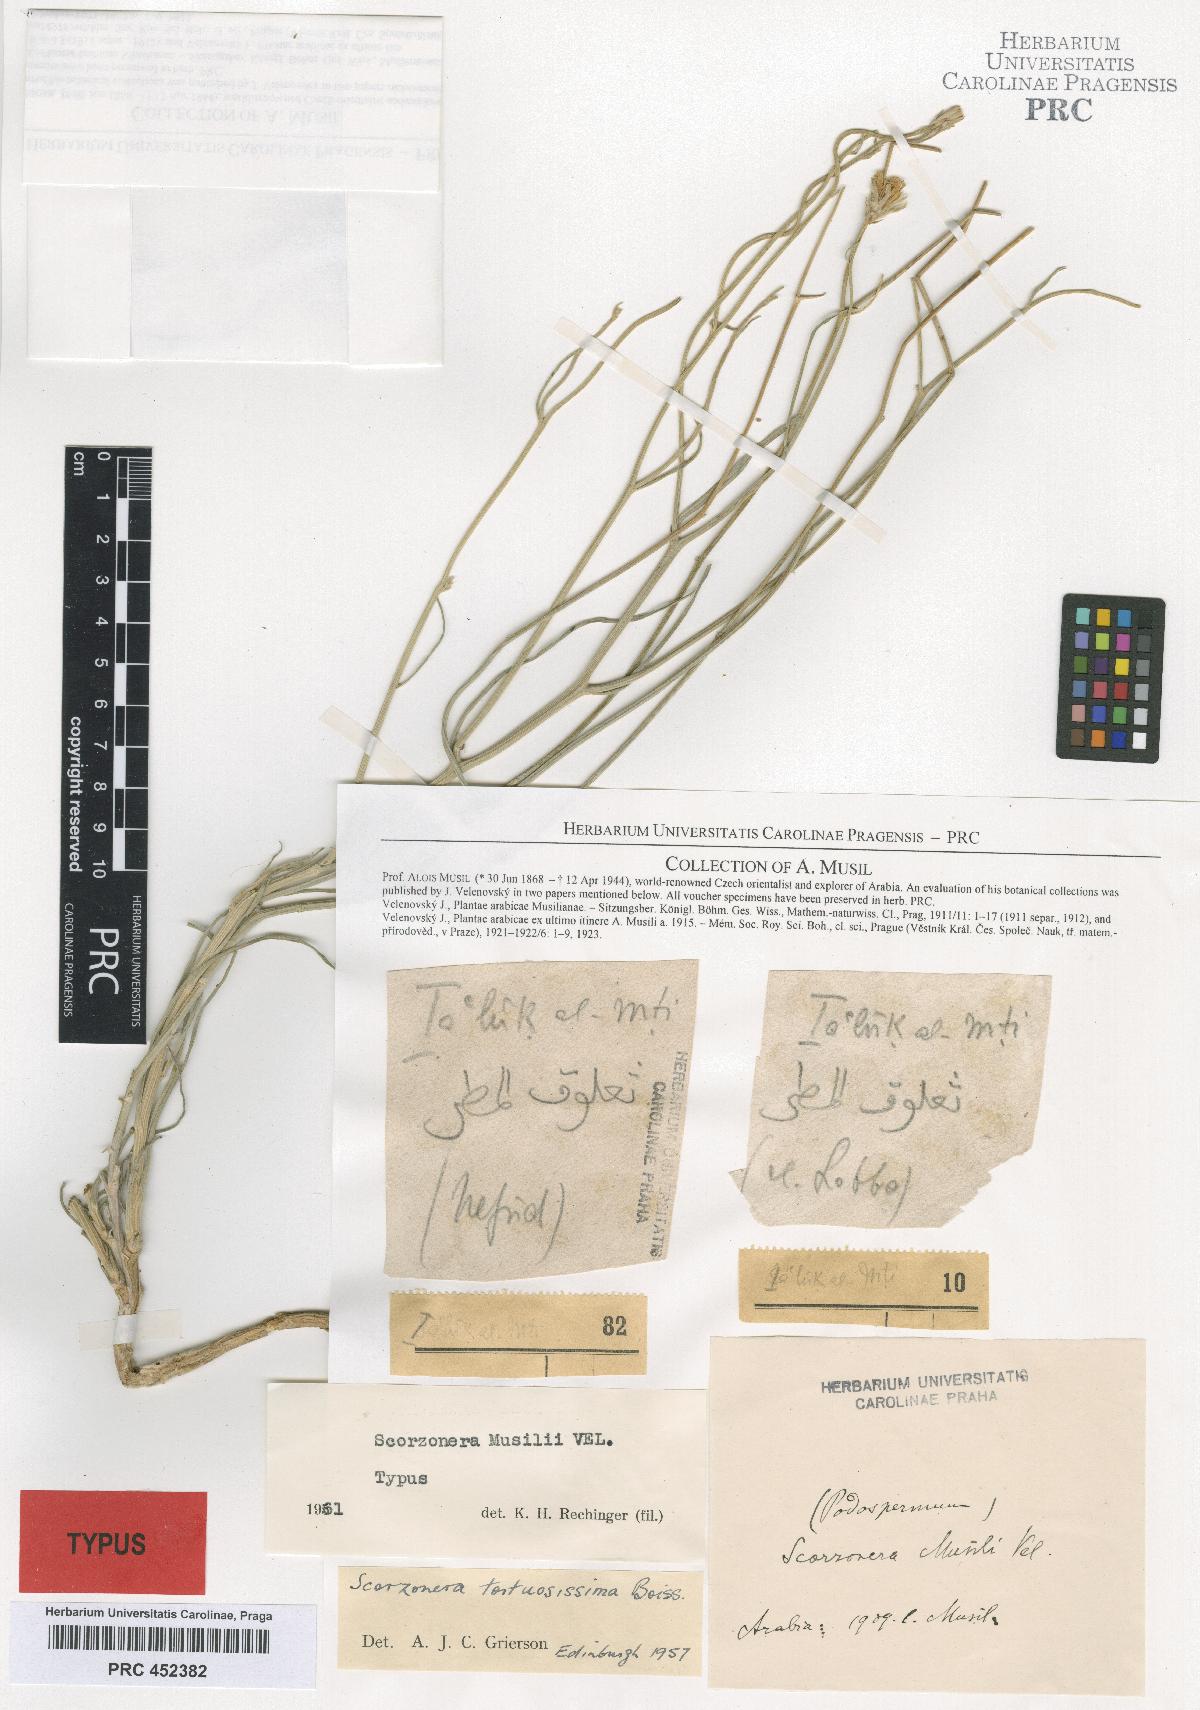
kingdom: Plantae
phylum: Tracheophyta
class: Magnoliopsida
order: Asterales
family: Asteraceae
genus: Ramaliella
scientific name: Ramaliella musilii
